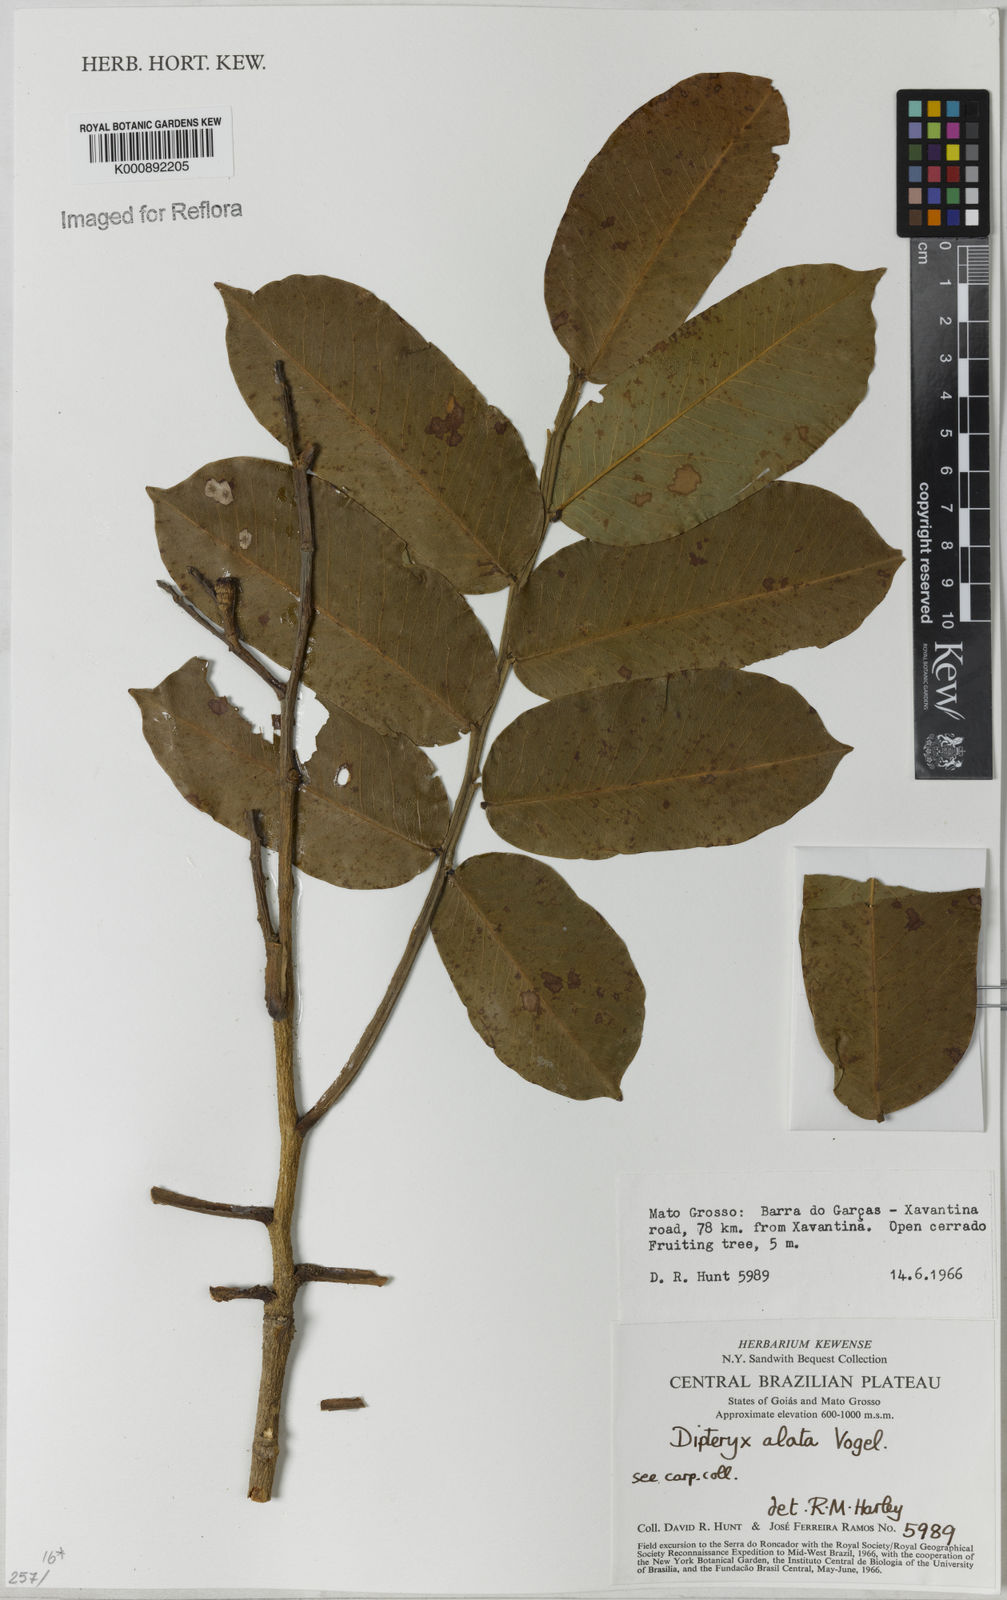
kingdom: Plantae
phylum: Tracheophyta
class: Magnoliopsida
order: Fabales
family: Fabaceae
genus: Dipteryx
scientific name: Dipteryx alata
